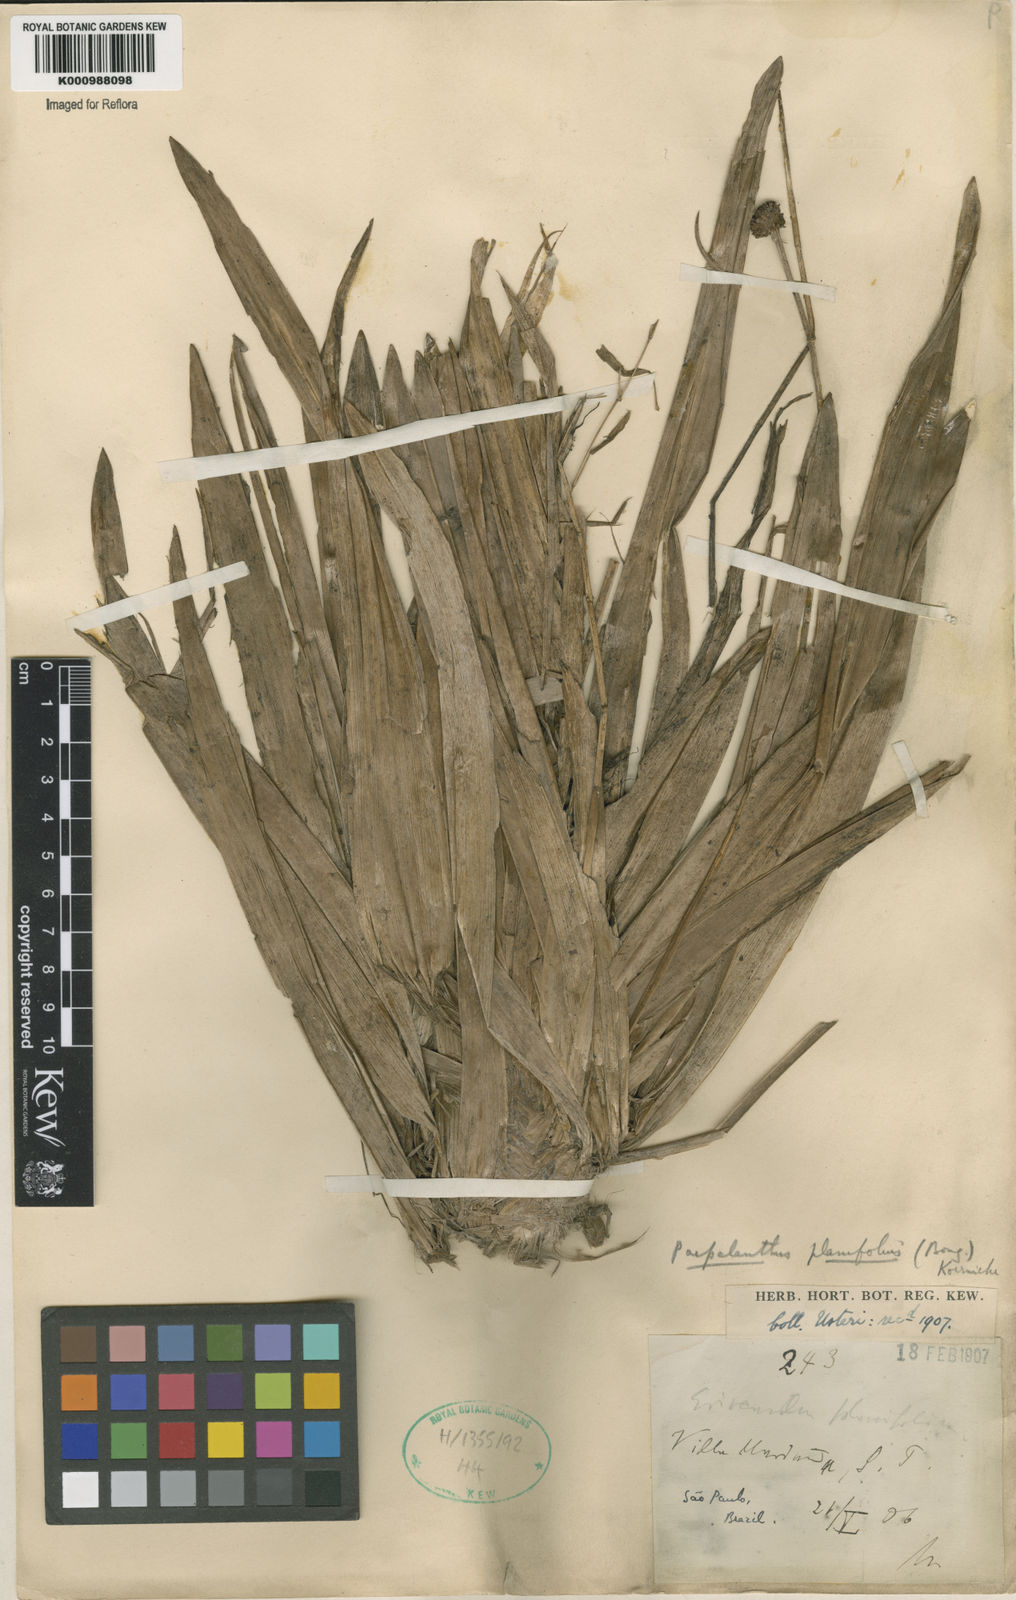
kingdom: Plantae
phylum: Tracheophyta
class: Liliopsida
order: Poales
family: Eriocaulaceae
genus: Paepalanthus
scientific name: Paepalanthus
